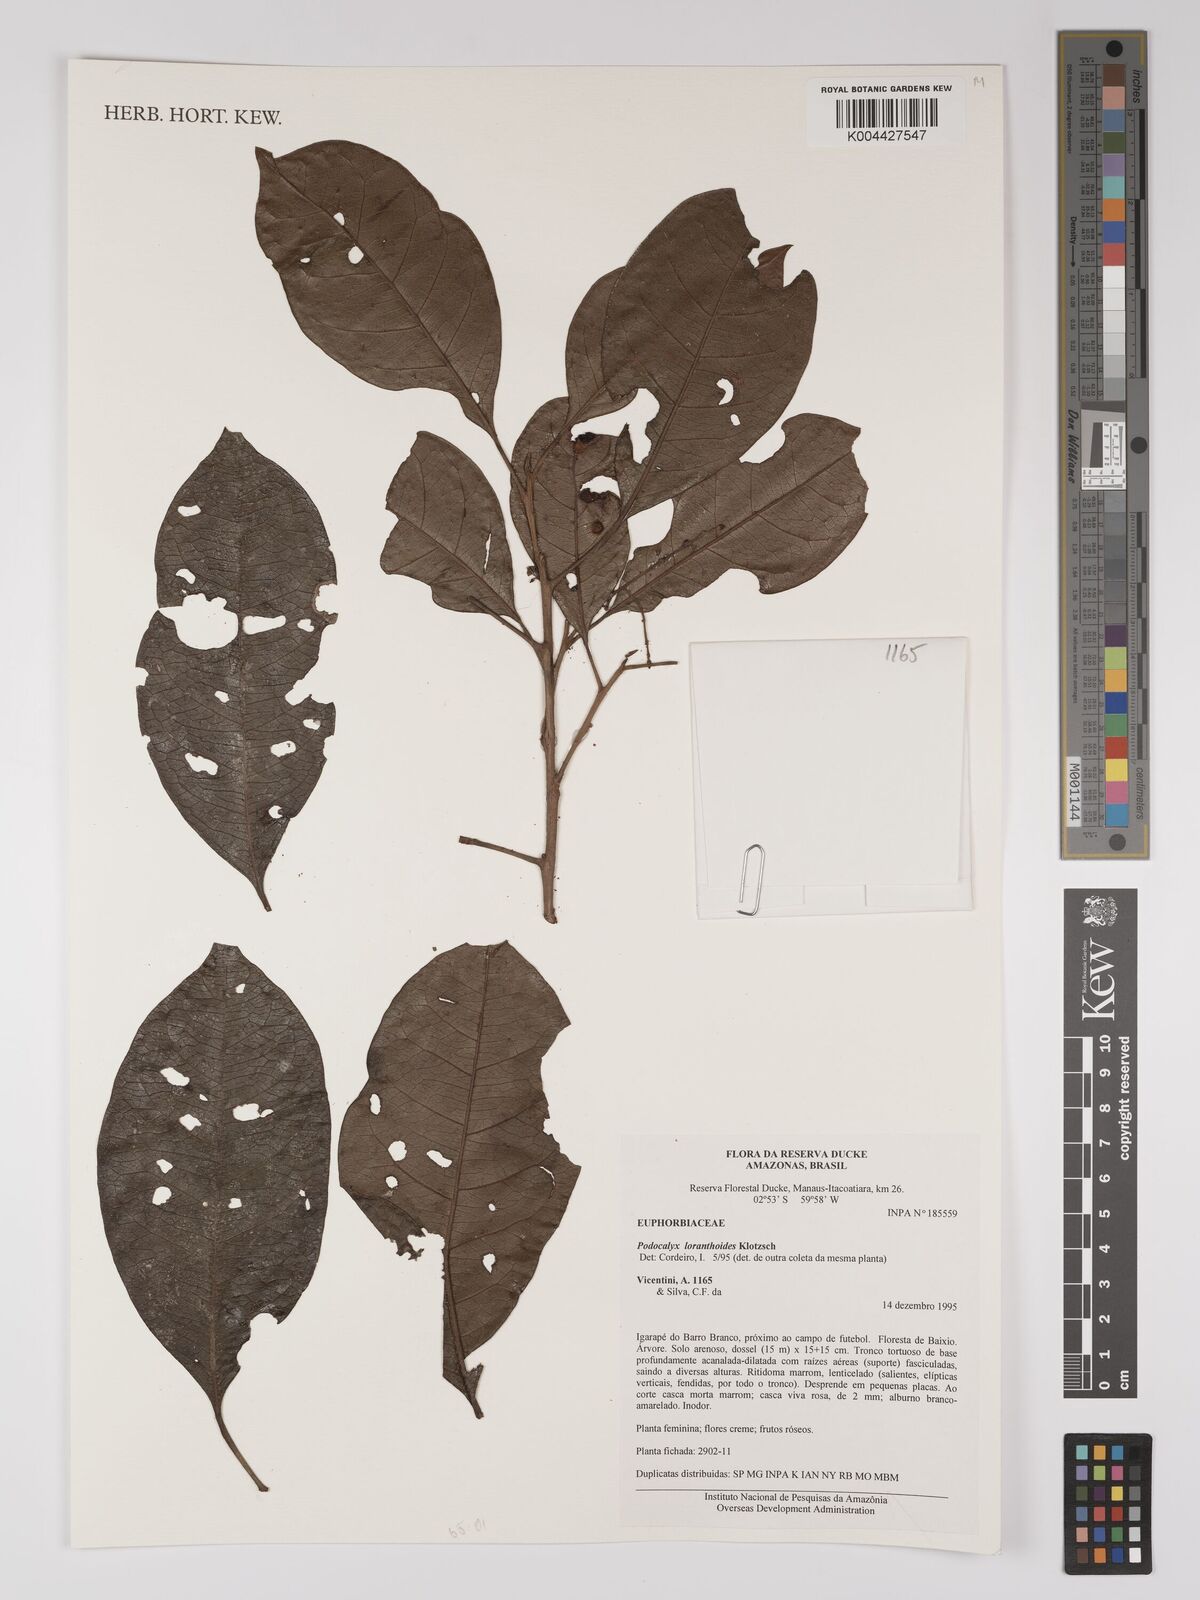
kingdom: Plantae
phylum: Tracheophyta
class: Magnoliopsida
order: Malpighiales
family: Picrodendraceae
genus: Podocalyx
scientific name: Podocalyx loranthoides
